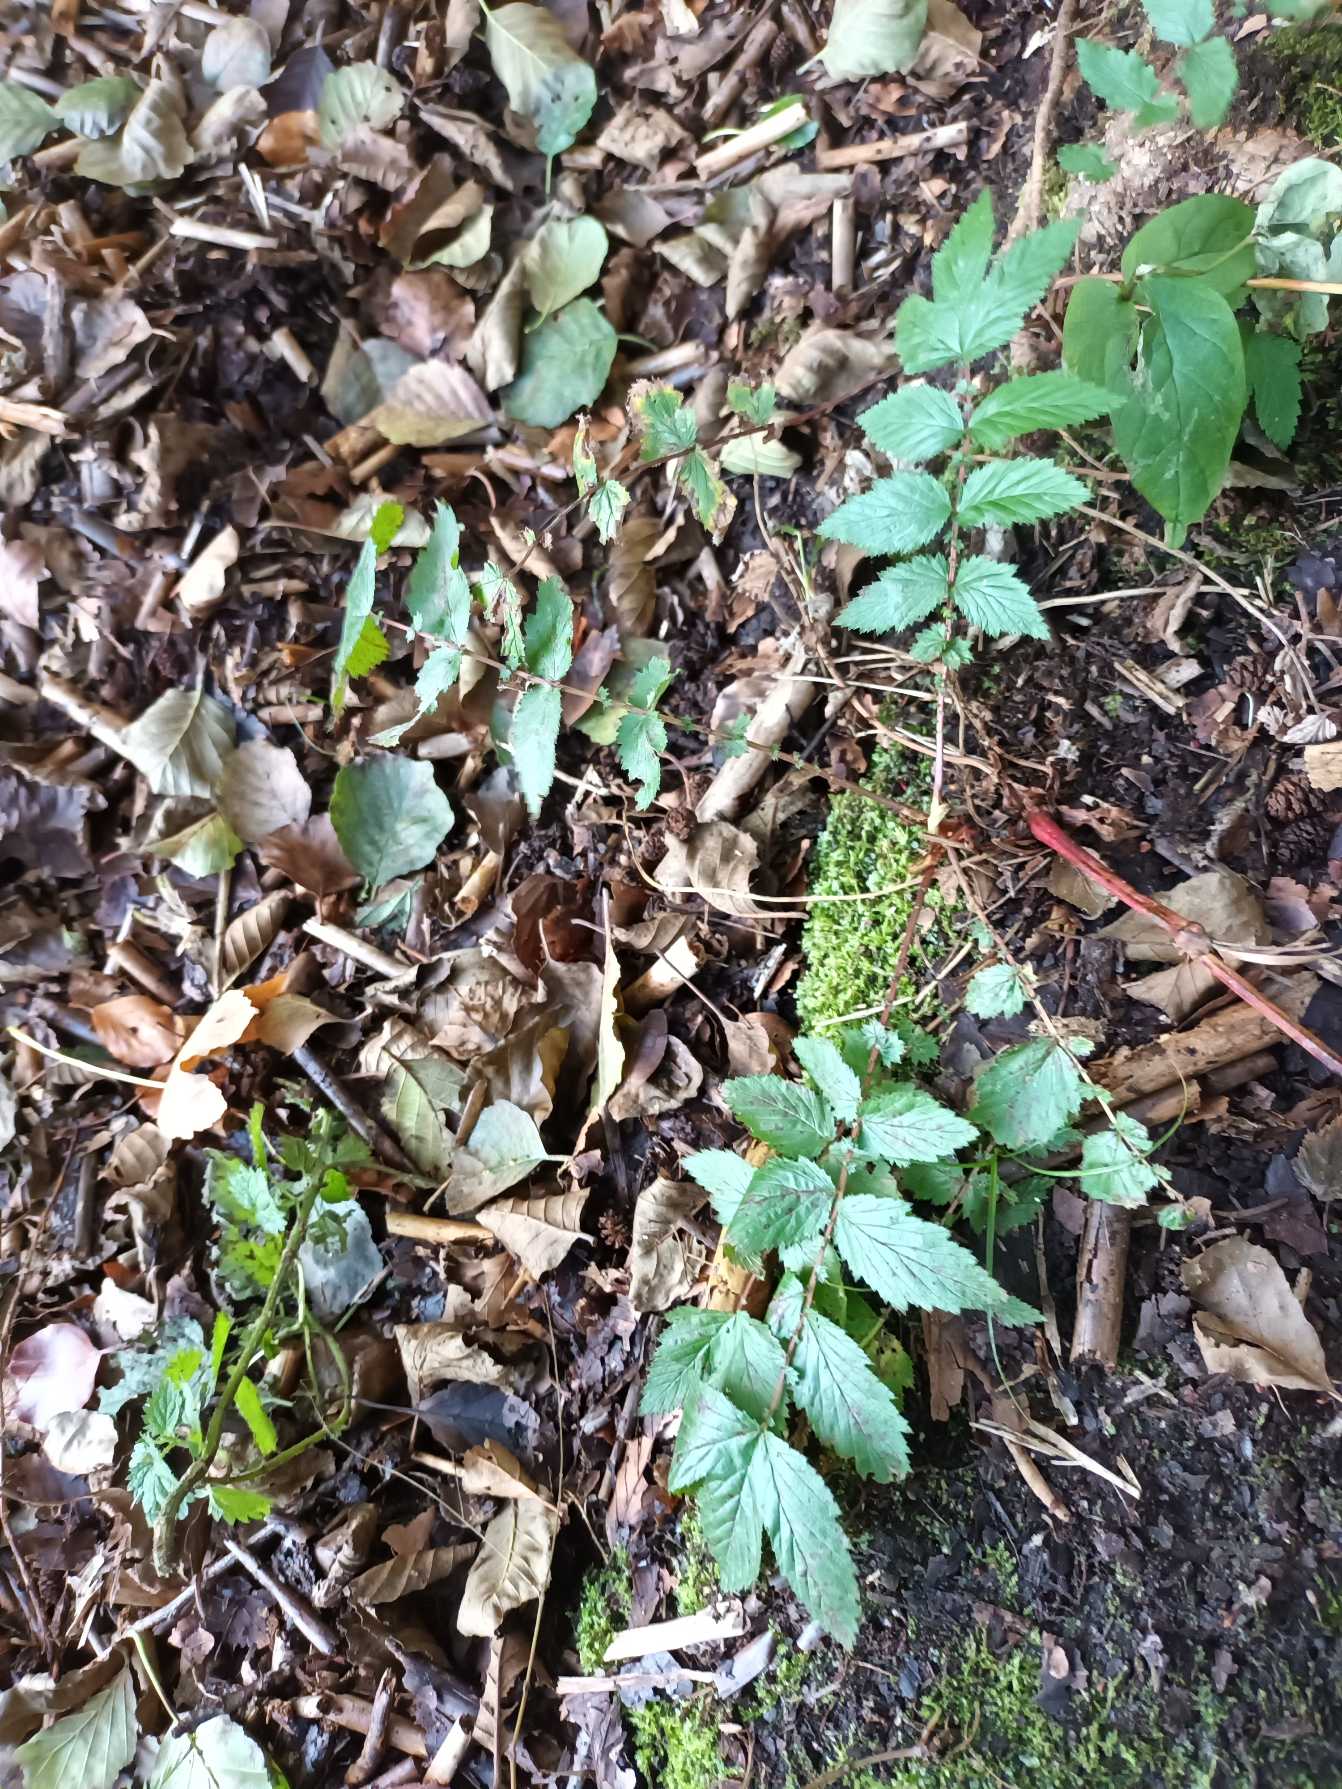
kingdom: Plantae
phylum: Tracheophyta
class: Magnoliopsida
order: Rosales
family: Rosaceae
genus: Filipendula
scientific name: Filipendula ulmaria
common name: Almindelig mjødurt
